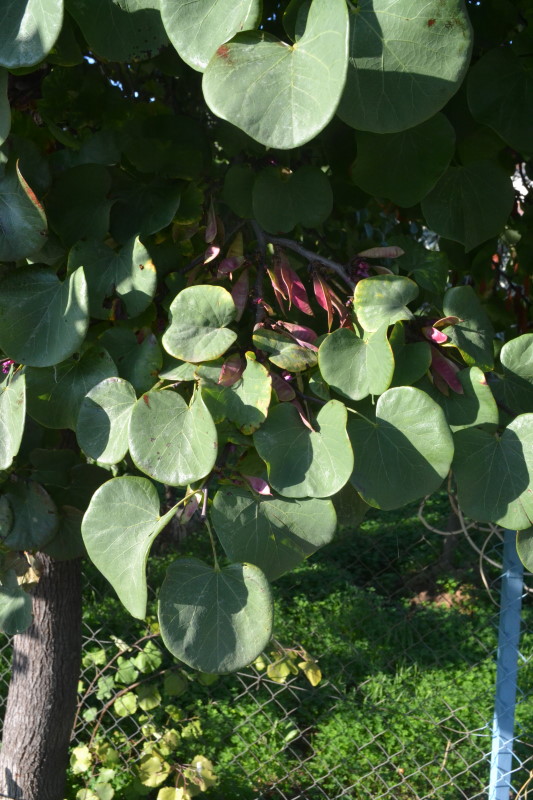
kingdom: Plantae
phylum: Tracheophyta
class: Magnoliopsida
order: Saxifragales
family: Cercidiphyllaceae
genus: Cercidiphyllum
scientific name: Cercidiphyllum
